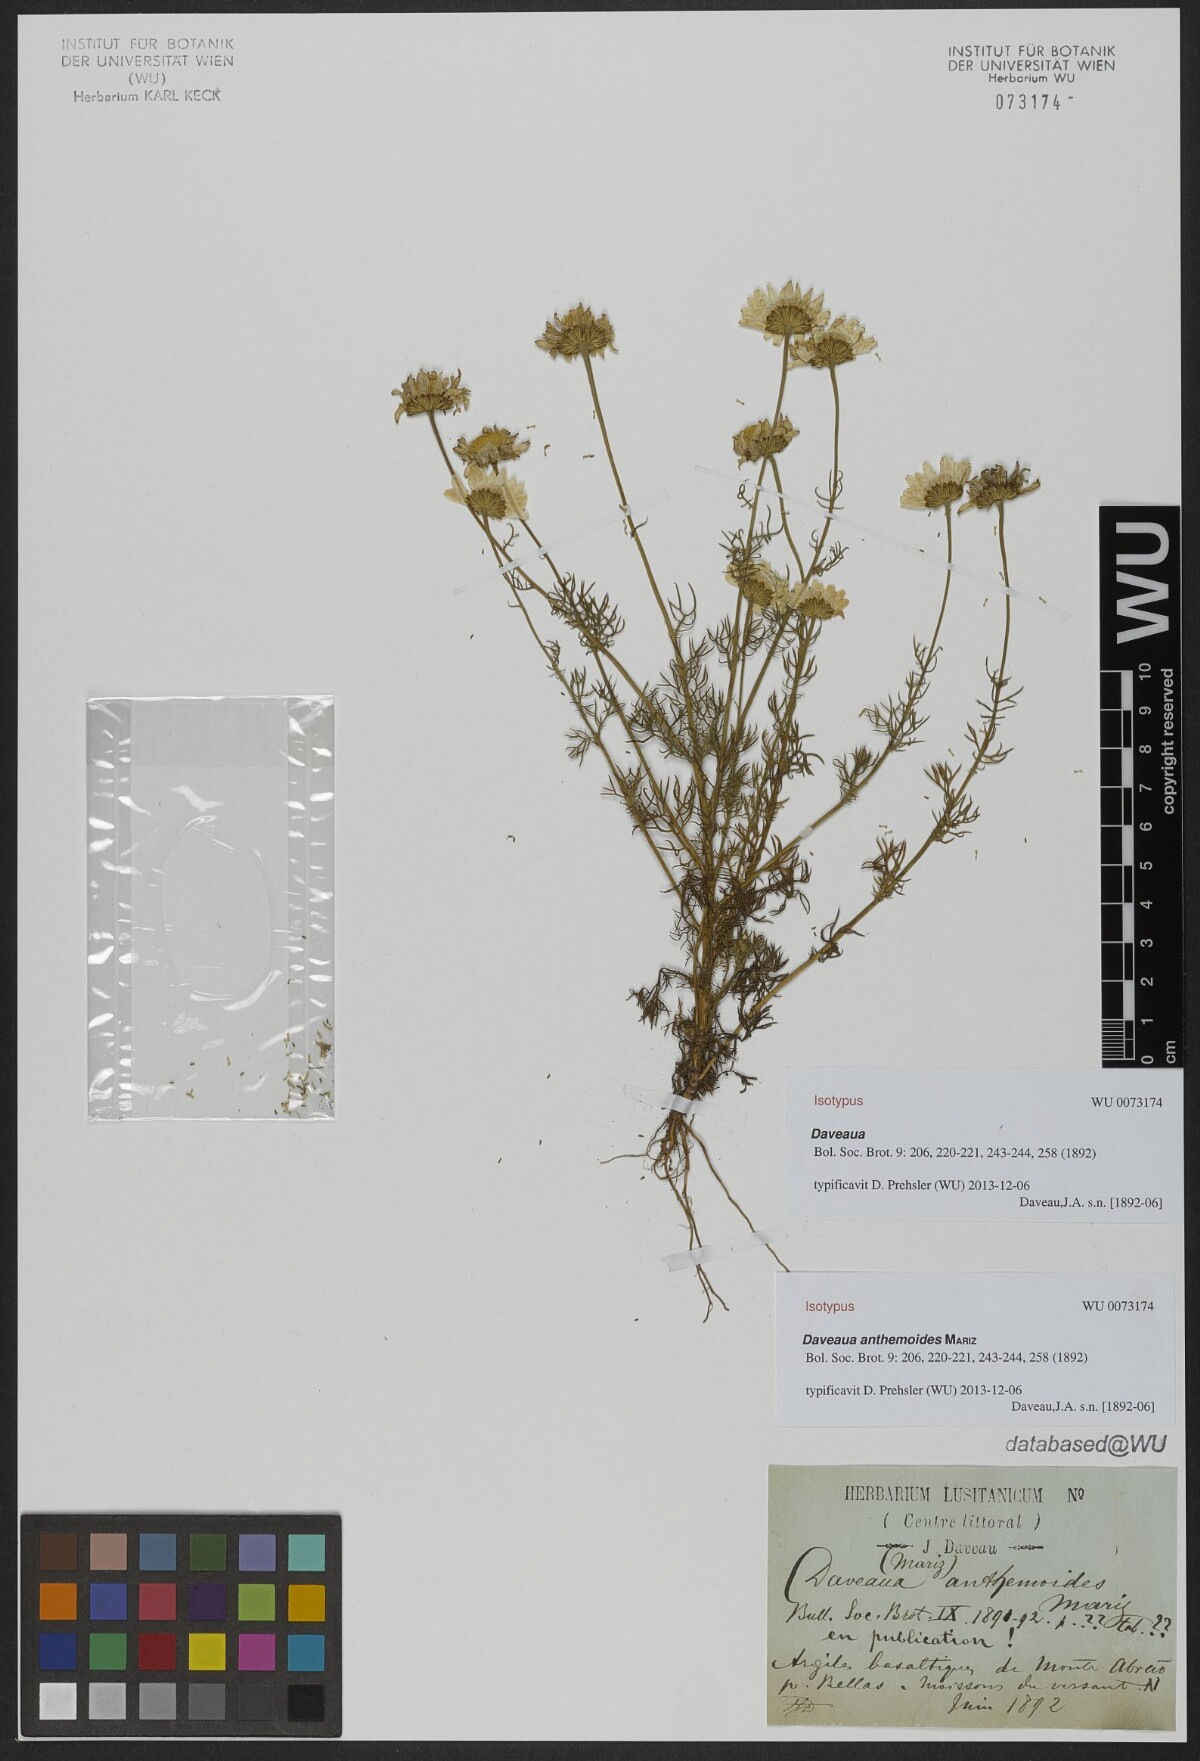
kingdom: Plantae
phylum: Tracheophyta
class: Magnoliopsida
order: Asterales
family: Asteraceae
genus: Daveaua
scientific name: Daveaua anthemoides
